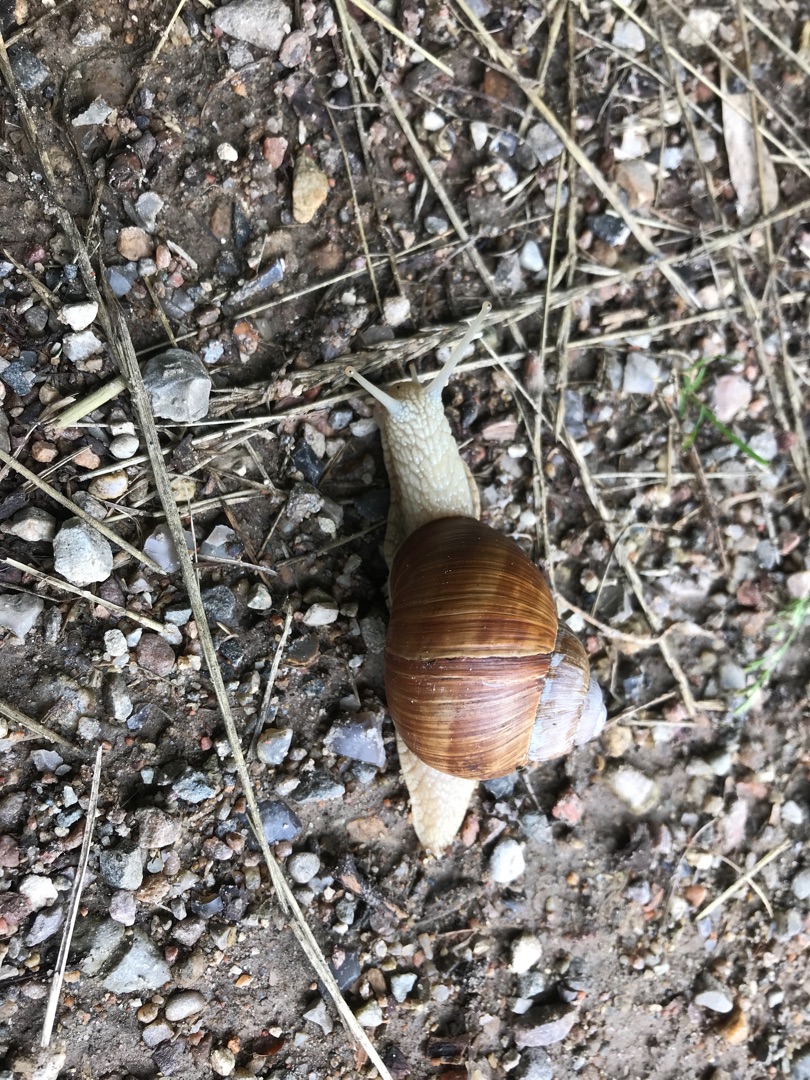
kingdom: Animalia
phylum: Mollusca
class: Gastropoda
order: Stylommatophora
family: Helicidae
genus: Helix
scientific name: Helix pomatia
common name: Vinbjergsnegl
